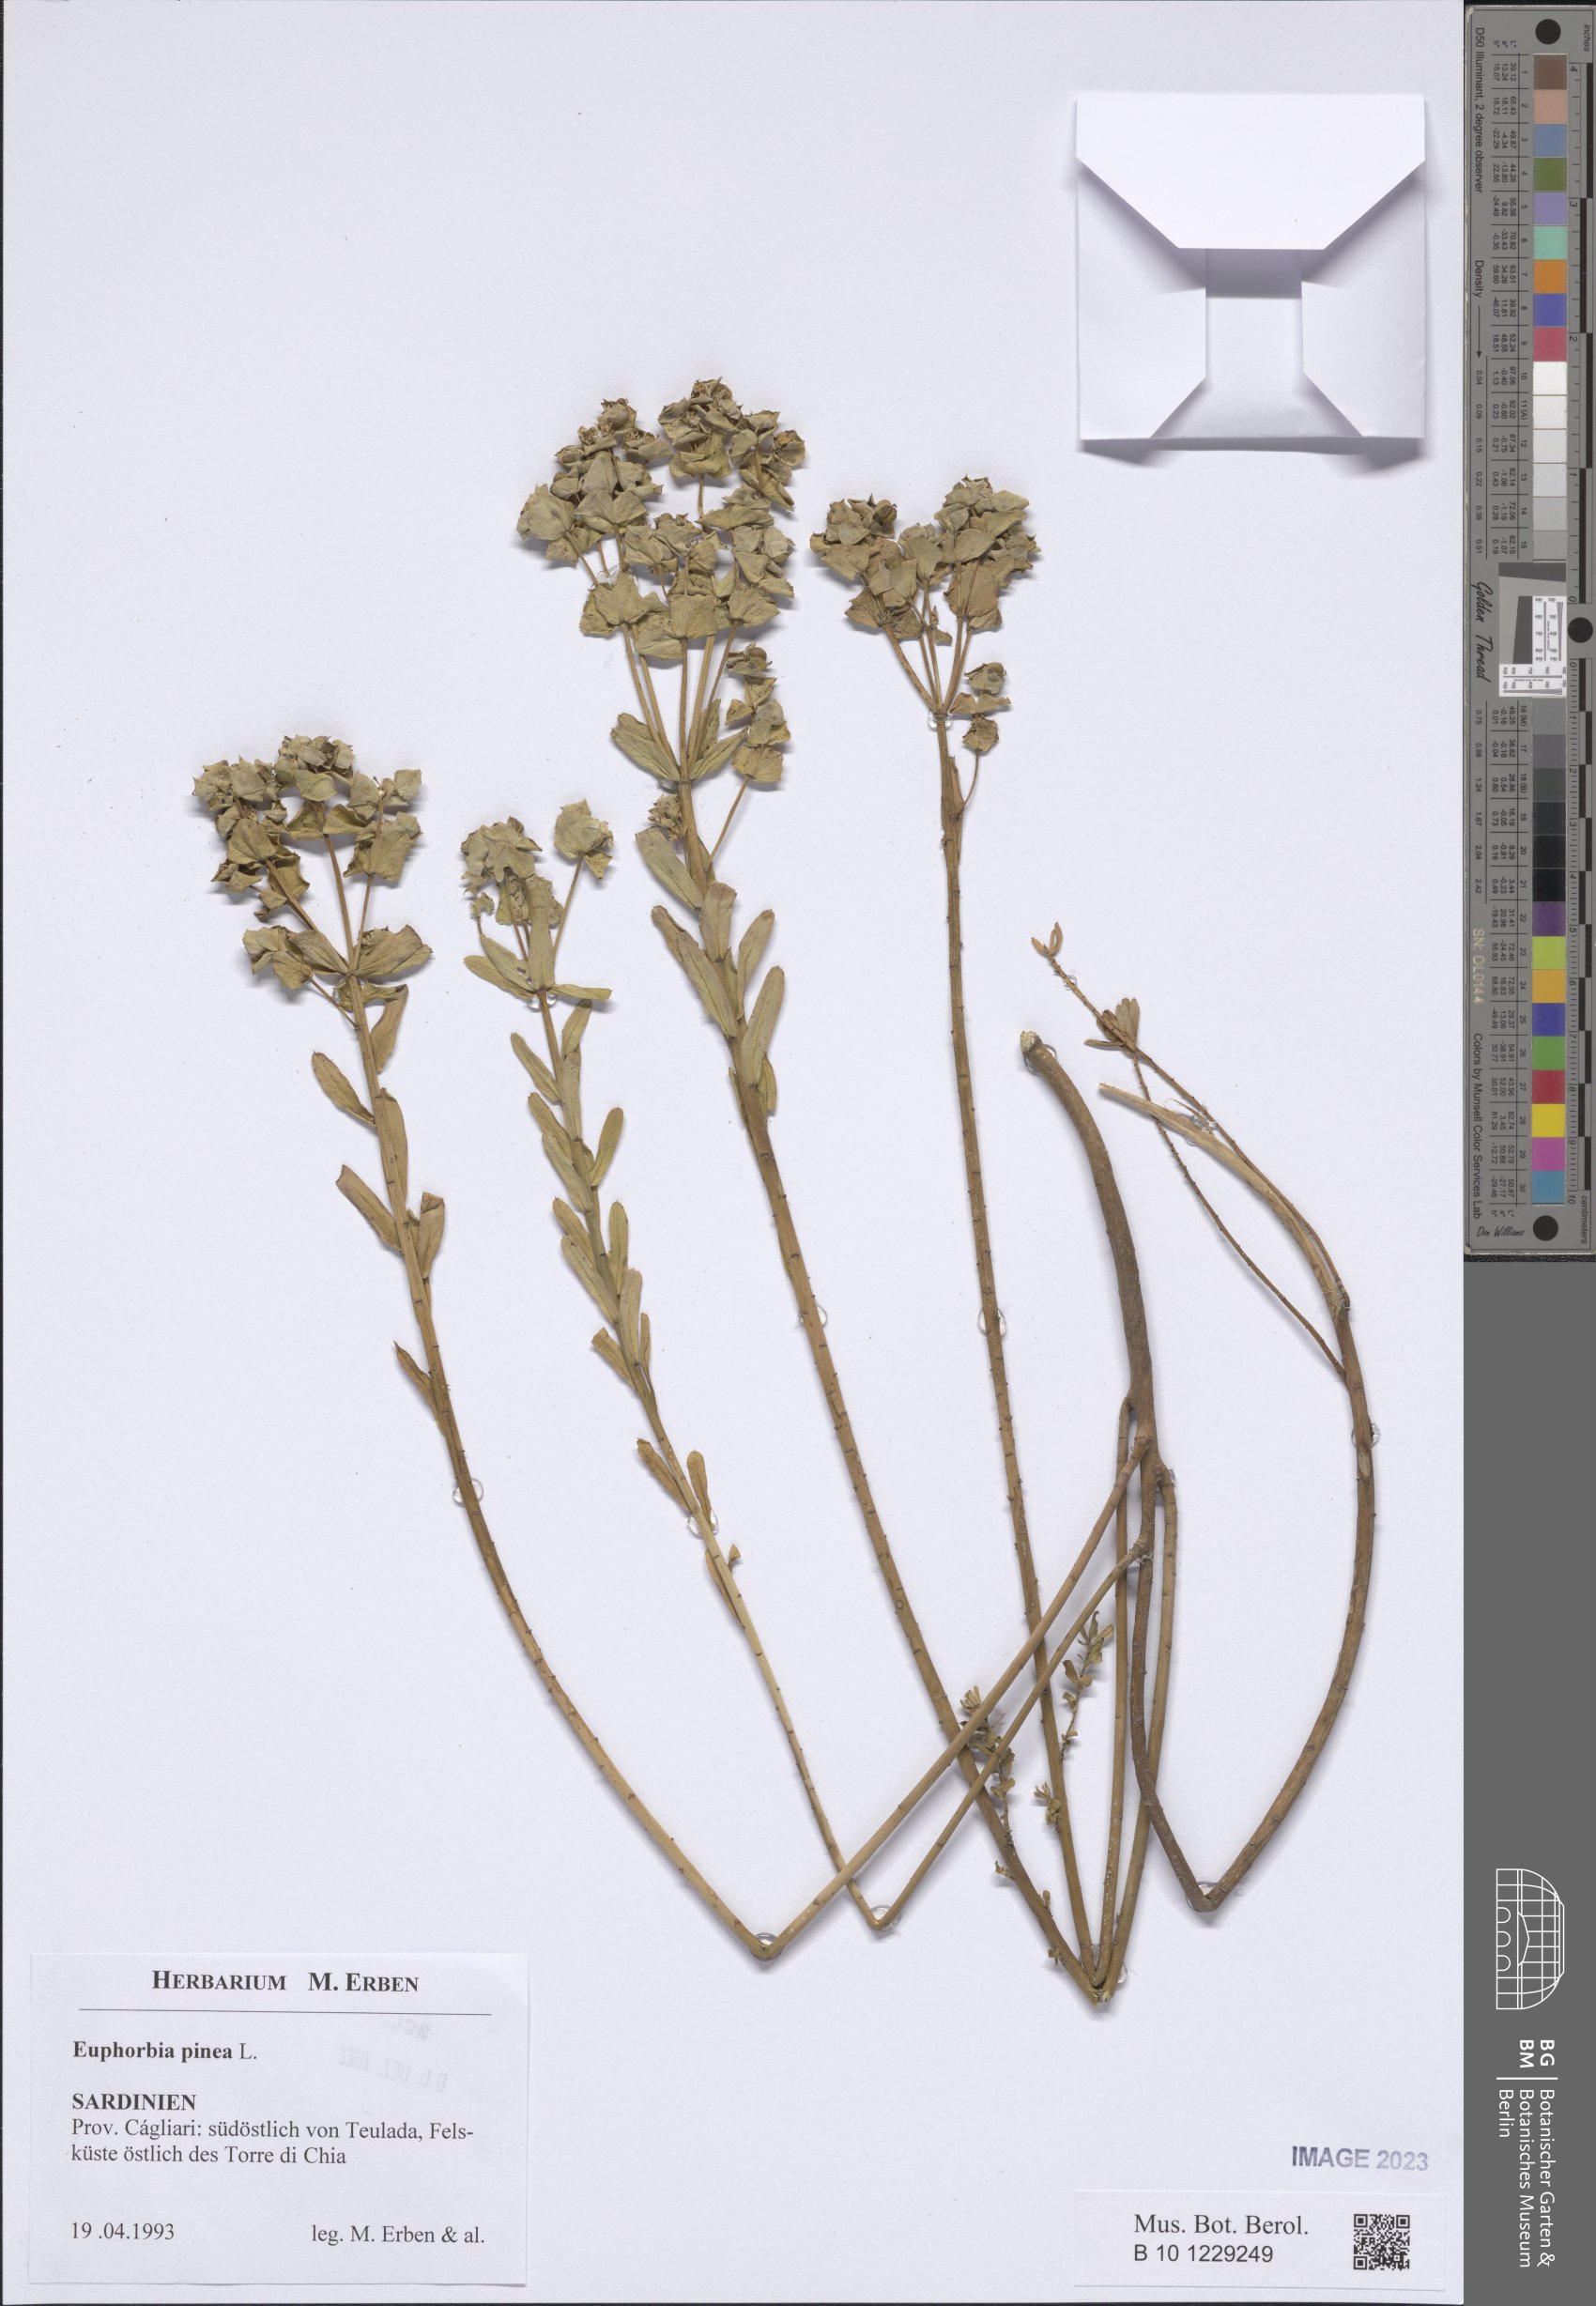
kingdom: Plantae
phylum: Tracheophyta
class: Magnoliopsida
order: Malpighiales
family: Euphorbiaceae
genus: Euphorbia
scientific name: Euphorbia segetalis
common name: Corn spurge
